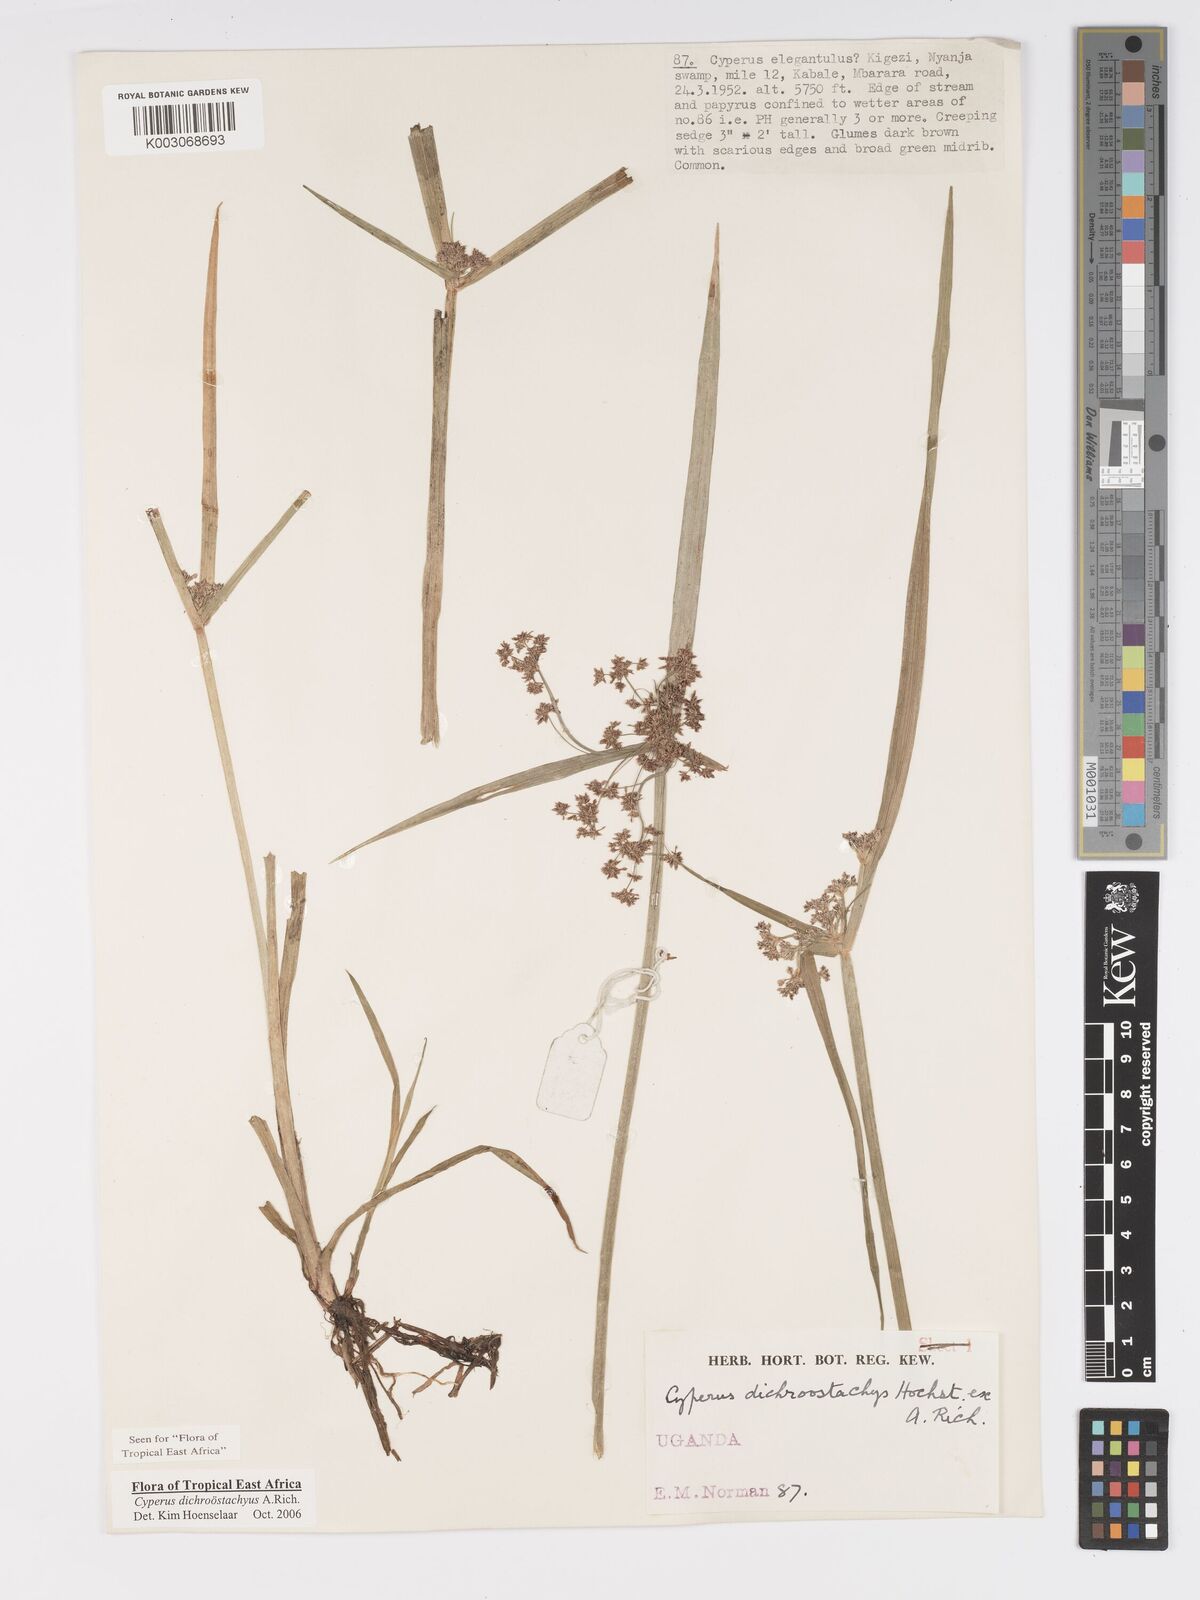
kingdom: Plantae
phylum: Tracheophyta
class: Liliopsida
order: Poales
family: Cyperaceae
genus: Cyperus
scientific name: Cyperus dichrostachyus
